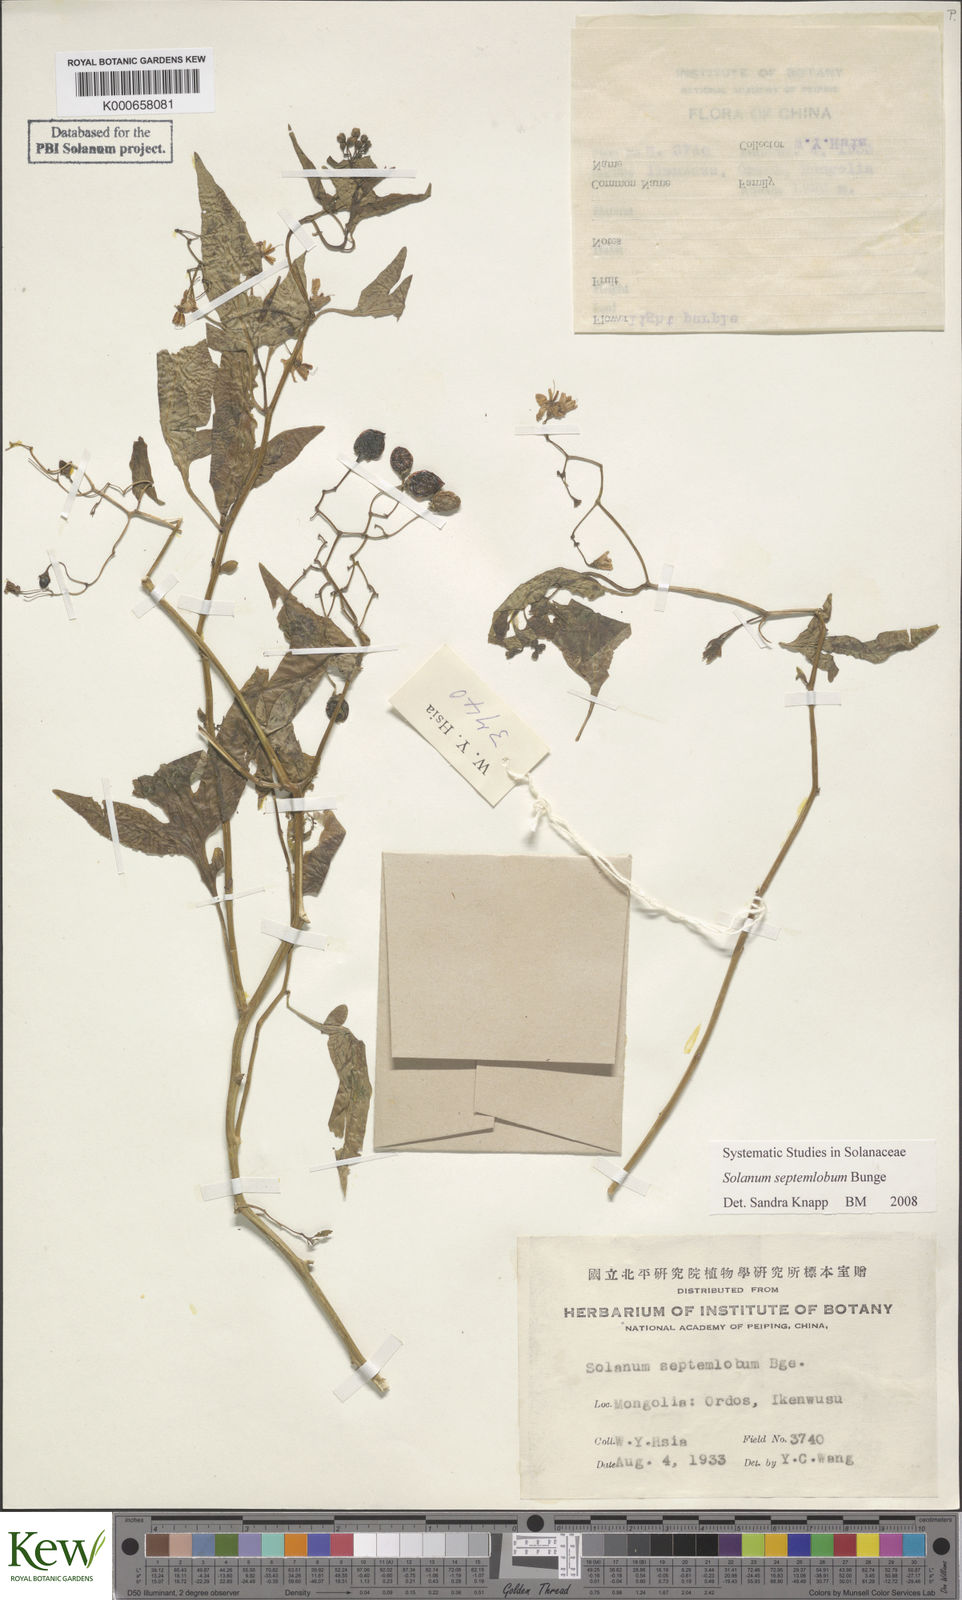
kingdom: Plantae
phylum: Tracheophyta
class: Magnoliopsida
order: Solanales
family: Solanaceae
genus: Solanum
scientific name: Solanum septemlobum
